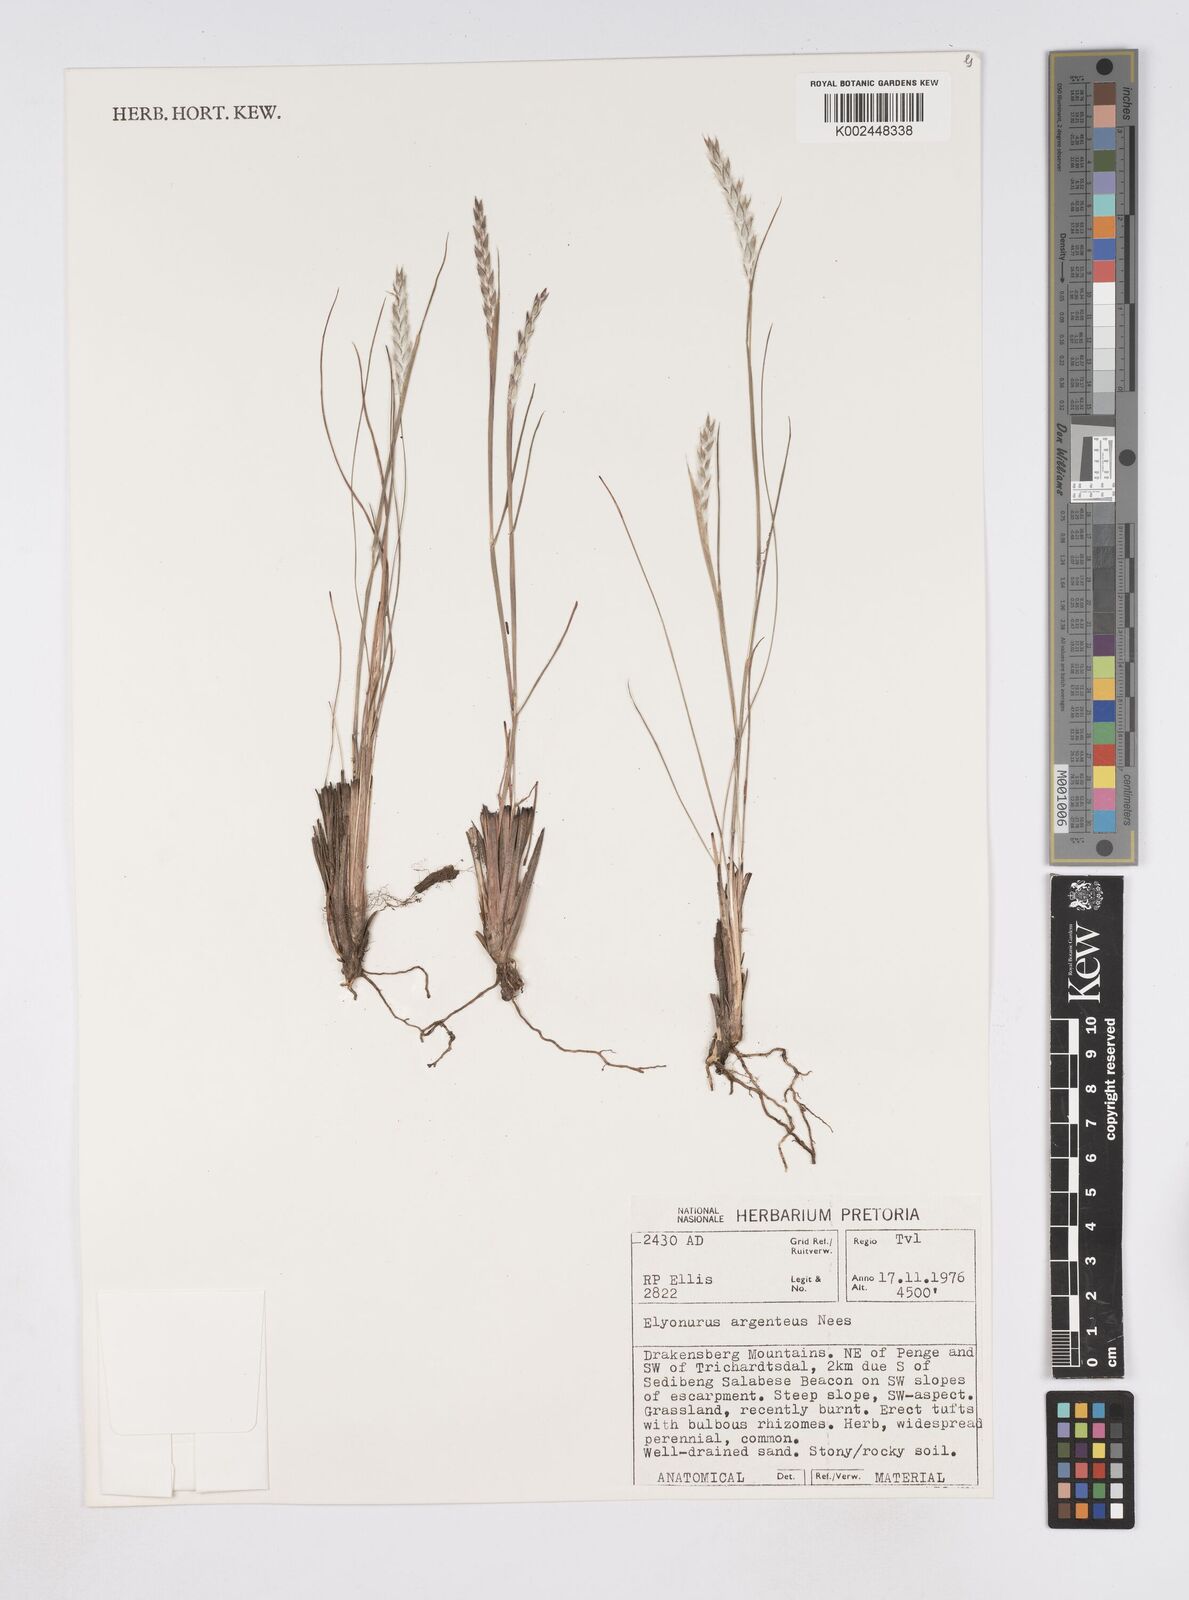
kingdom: Plantae
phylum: Tracheophyta
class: Liliopsida
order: Poales
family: Poaceae
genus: Elionurus
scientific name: Elionurus muticus
